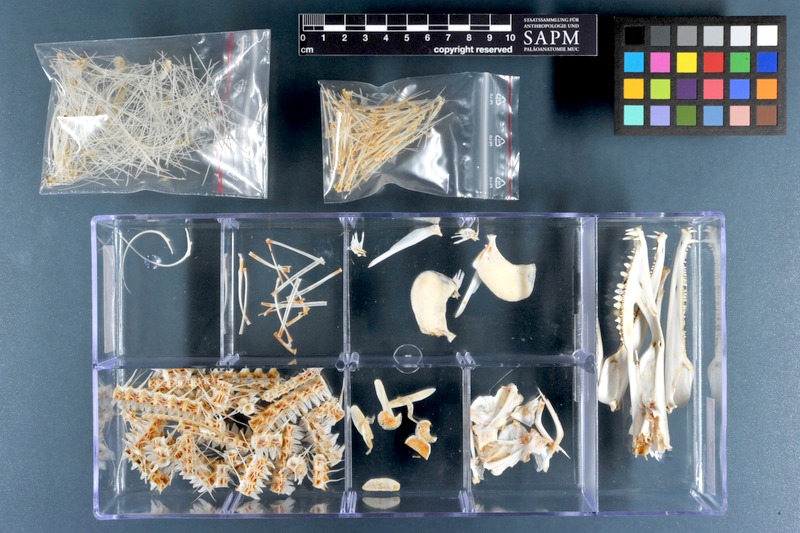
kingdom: Animalia
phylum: Chordata
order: Anguilliformes
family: Muraenesocidae
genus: Muraenesox
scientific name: Muraenesox cinereus
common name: Daggertooth pike conger
